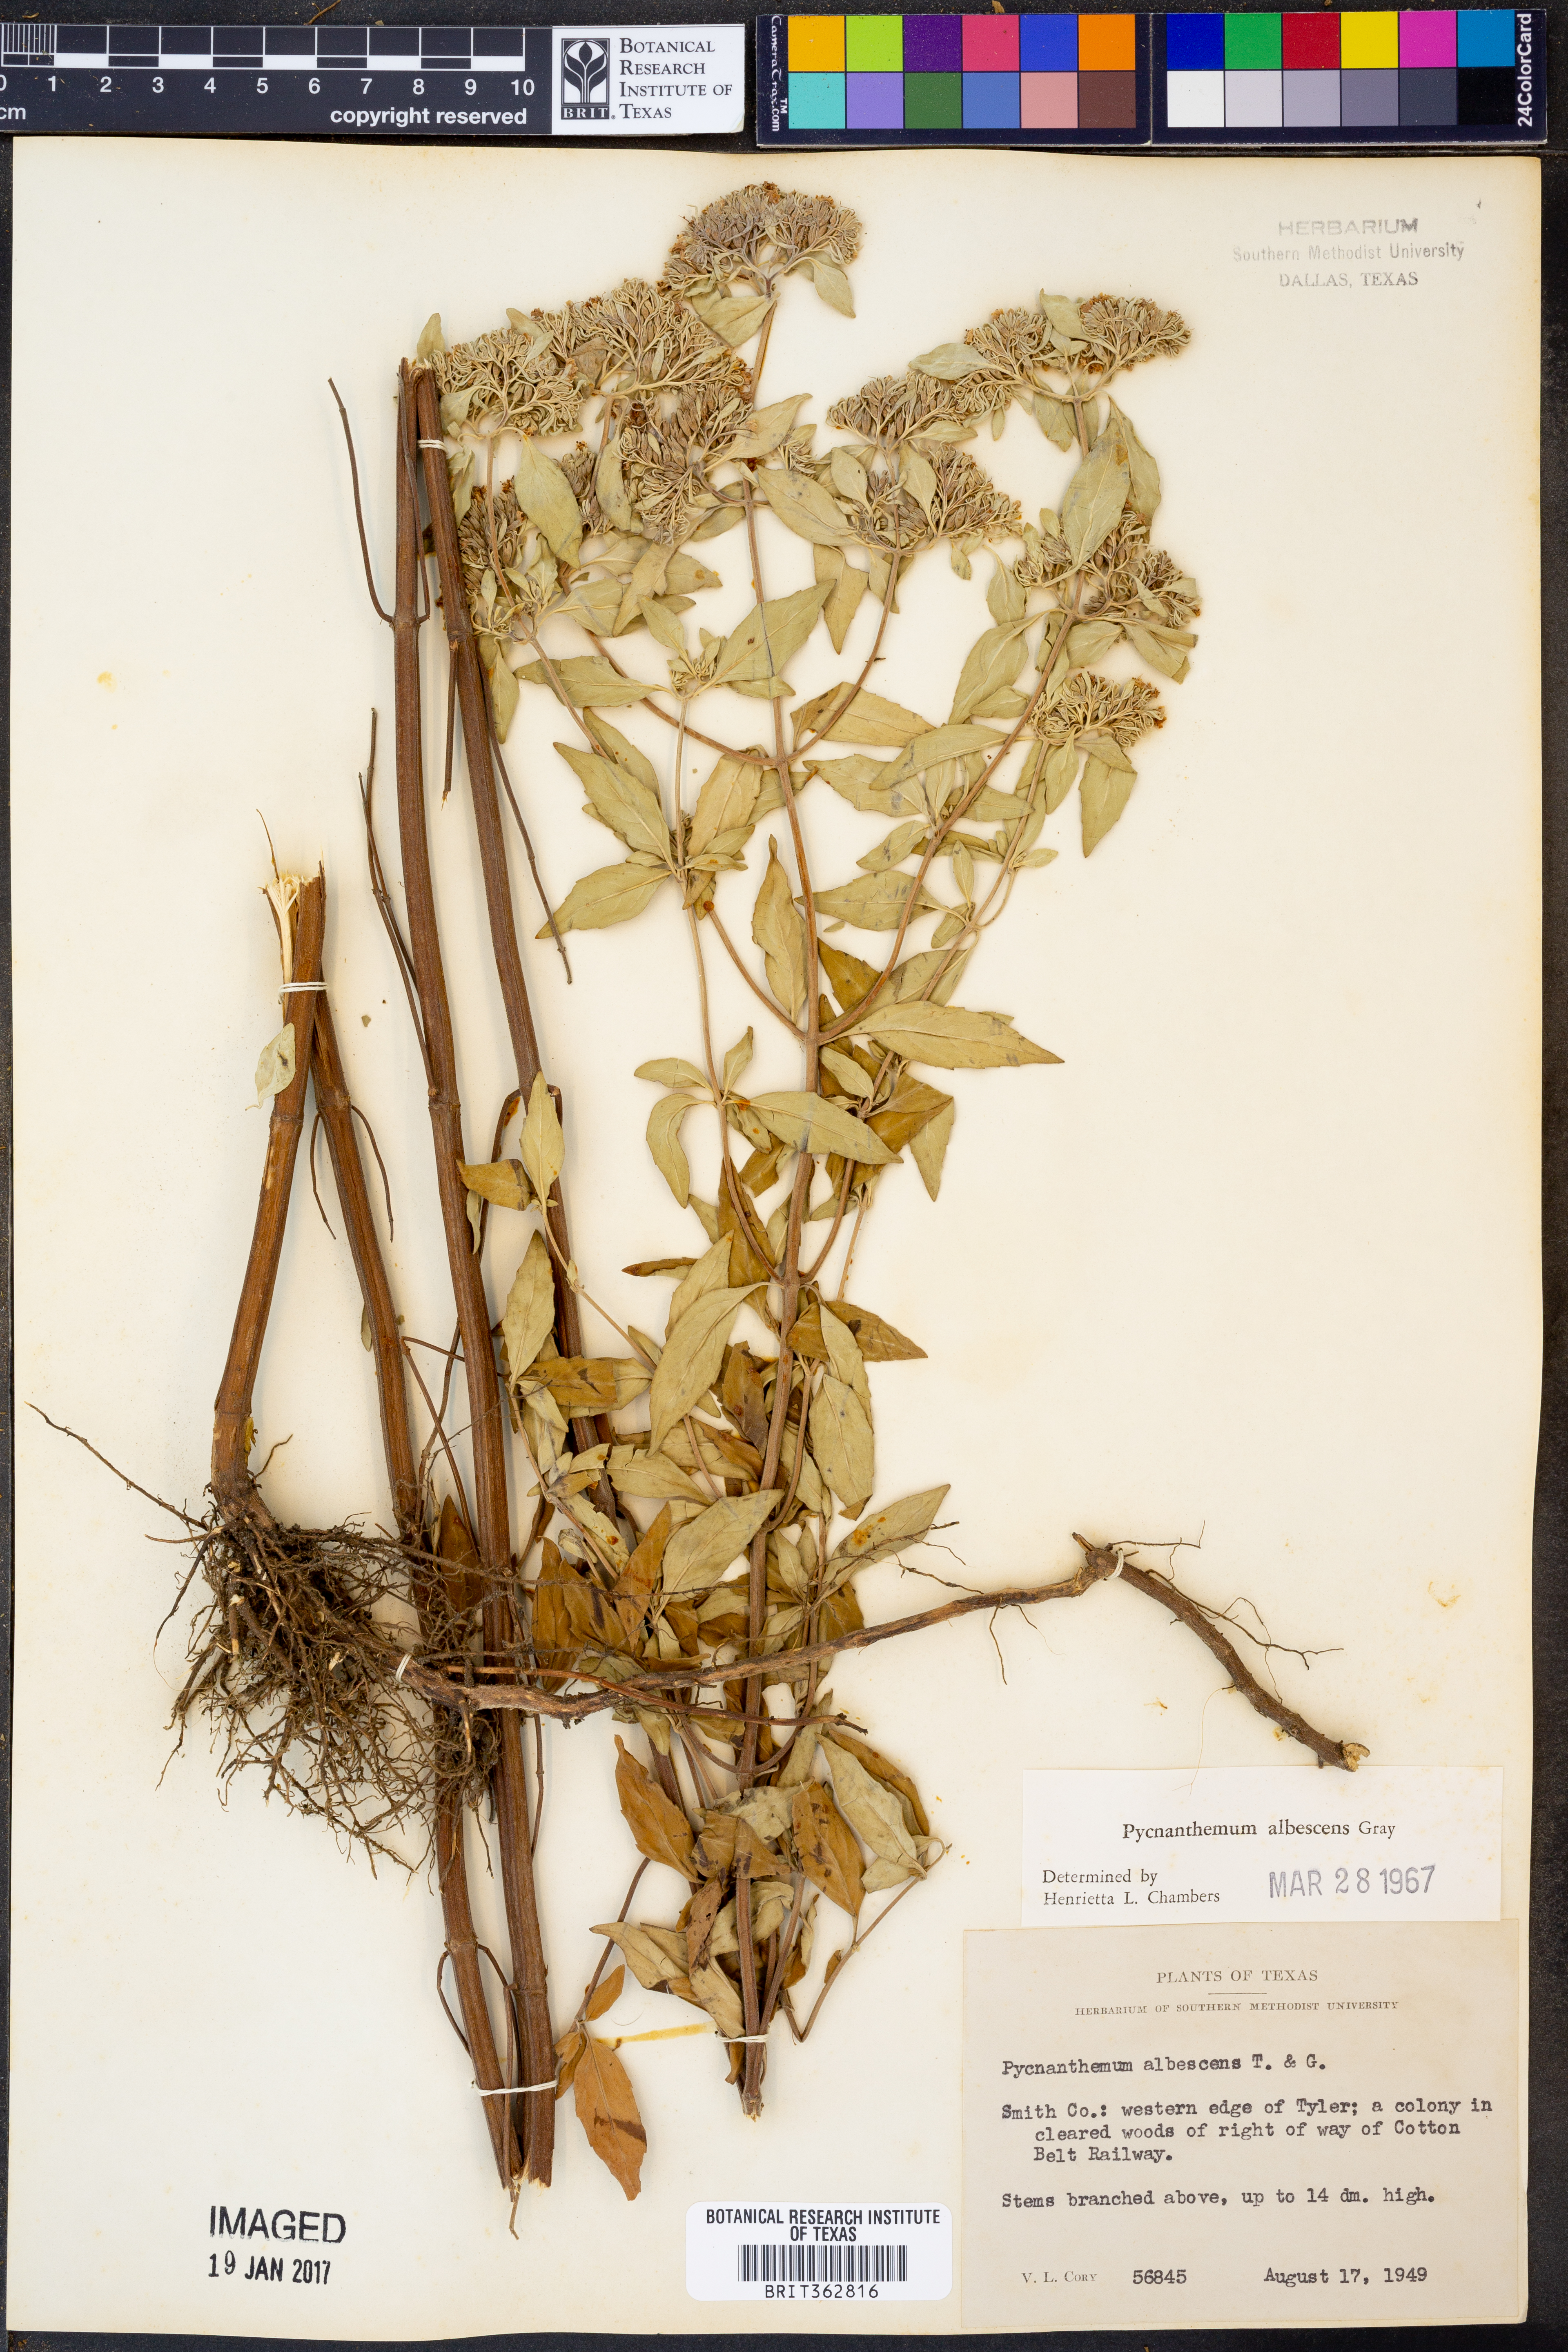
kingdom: Plantae
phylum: Tracheophyta
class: Magnoliopsida
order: Lamiales
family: Lamiaceae
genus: Pycnanthemum
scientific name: Pycnanthemum albescens
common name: White-leaf mountain-mint
